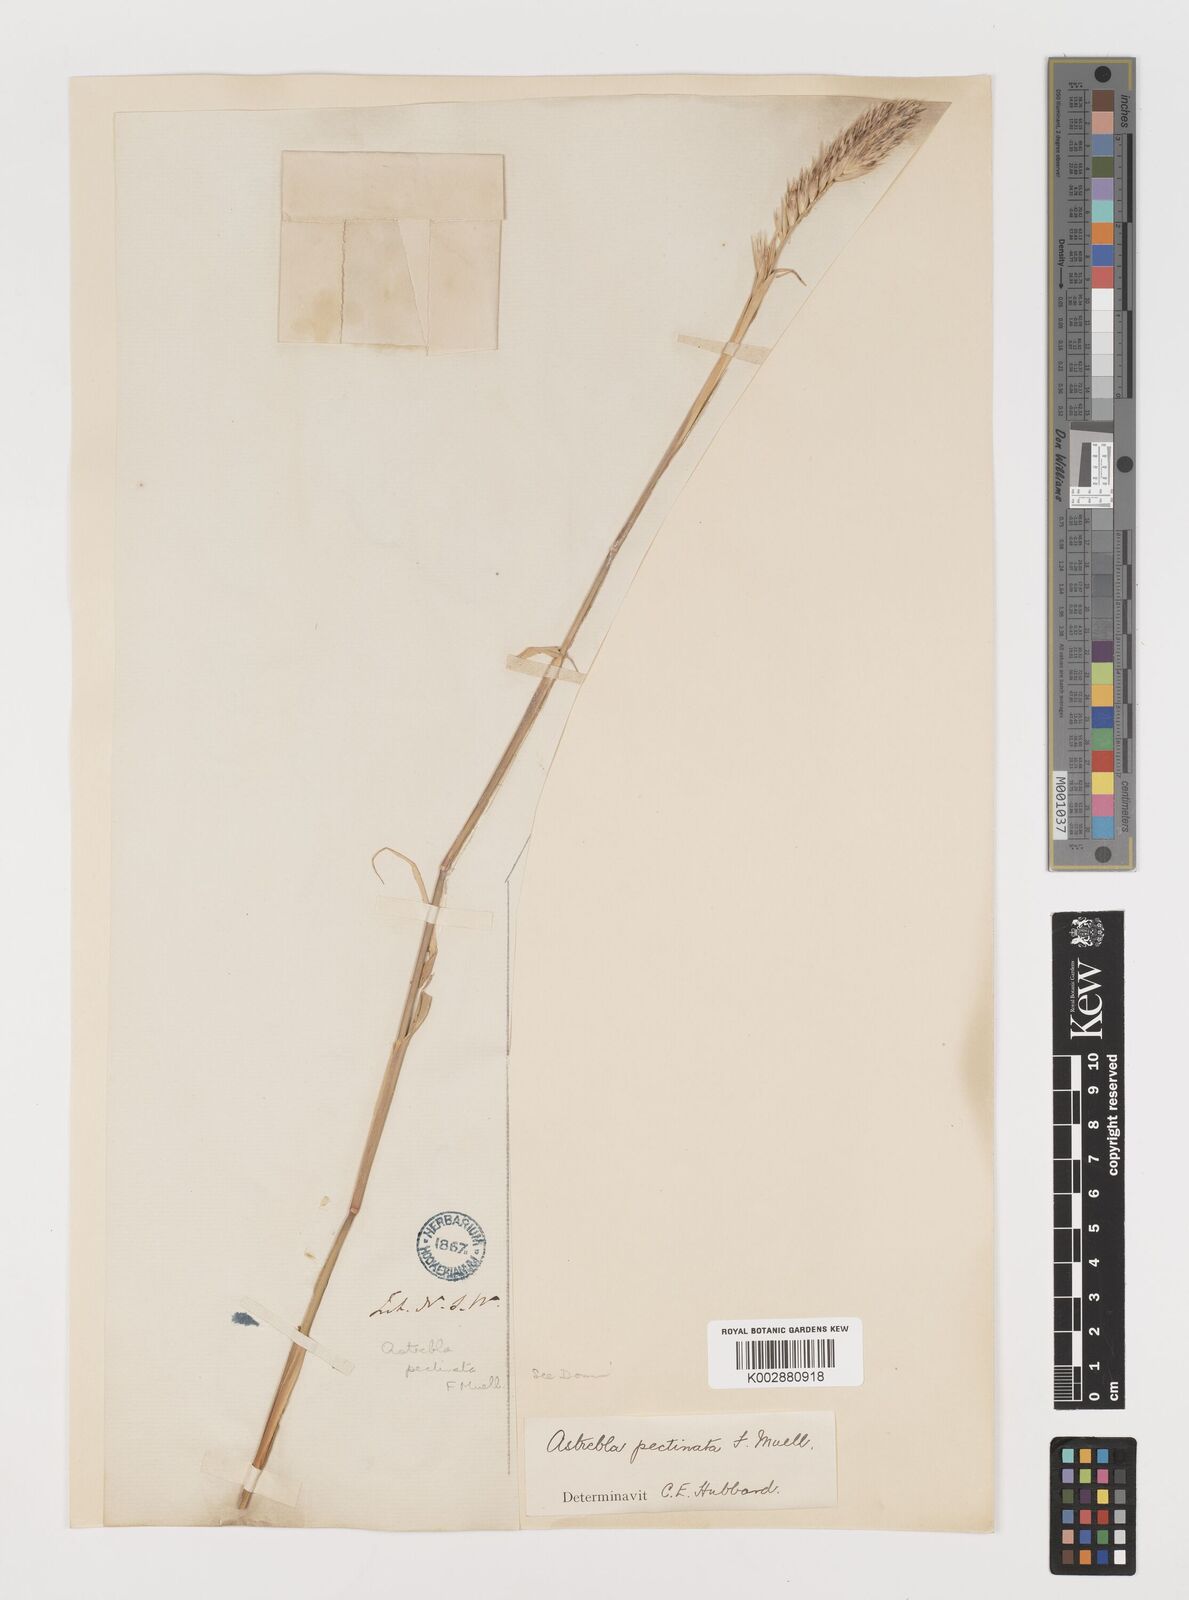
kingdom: Plantae
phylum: Tracheophyta
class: Liliopsida
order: Poales
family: Poaceae
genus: Astrebla
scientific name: Astrebla pectinata
